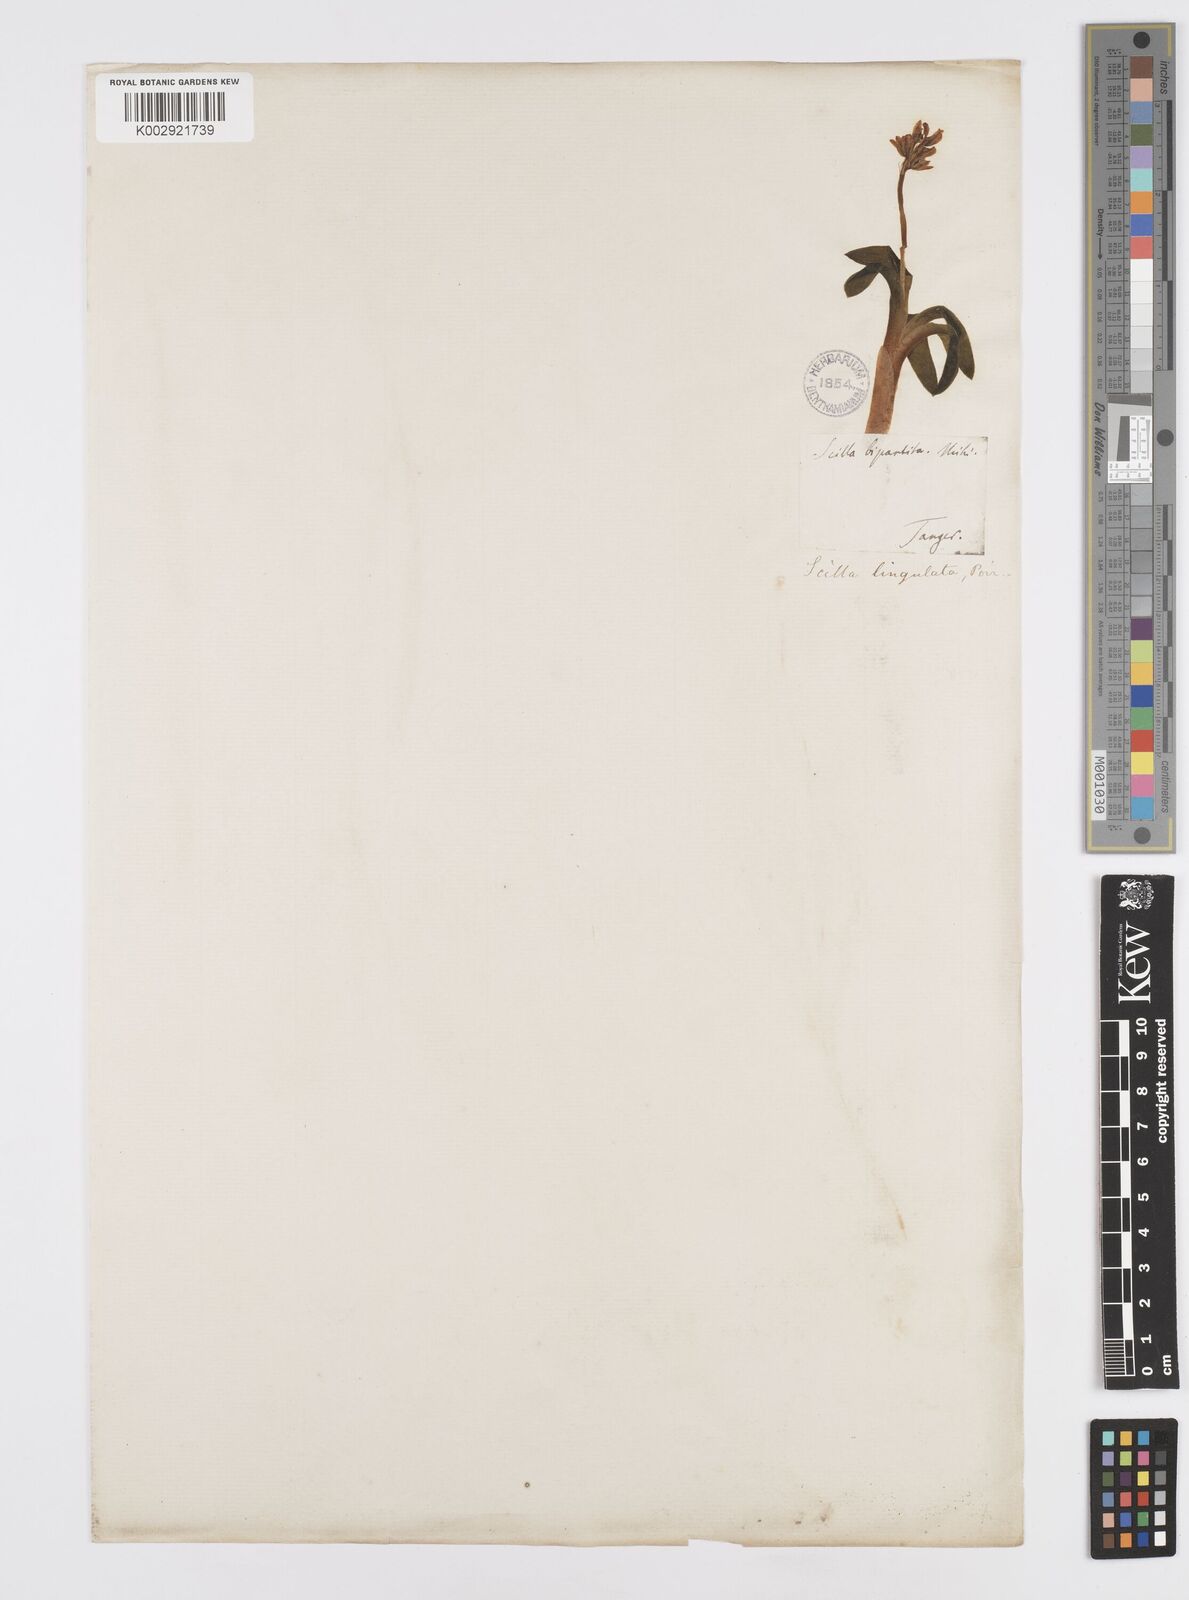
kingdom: Plantae
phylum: Tracheophyta
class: Liliopsida
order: Asparagales
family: Asparagaceae
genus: Hyacinthoides
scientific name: Hyacinthoides lingulata
